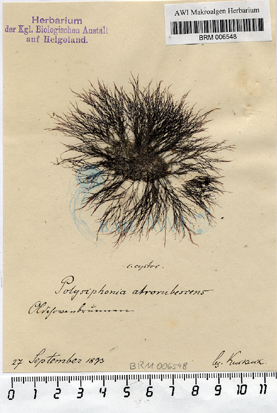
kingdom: Plantae
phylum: Rhodophyta
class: Florideophyceae
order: Ceramiales
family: Rhodomelaceae
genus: Vertebrata
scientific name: Vertebrata nigra
